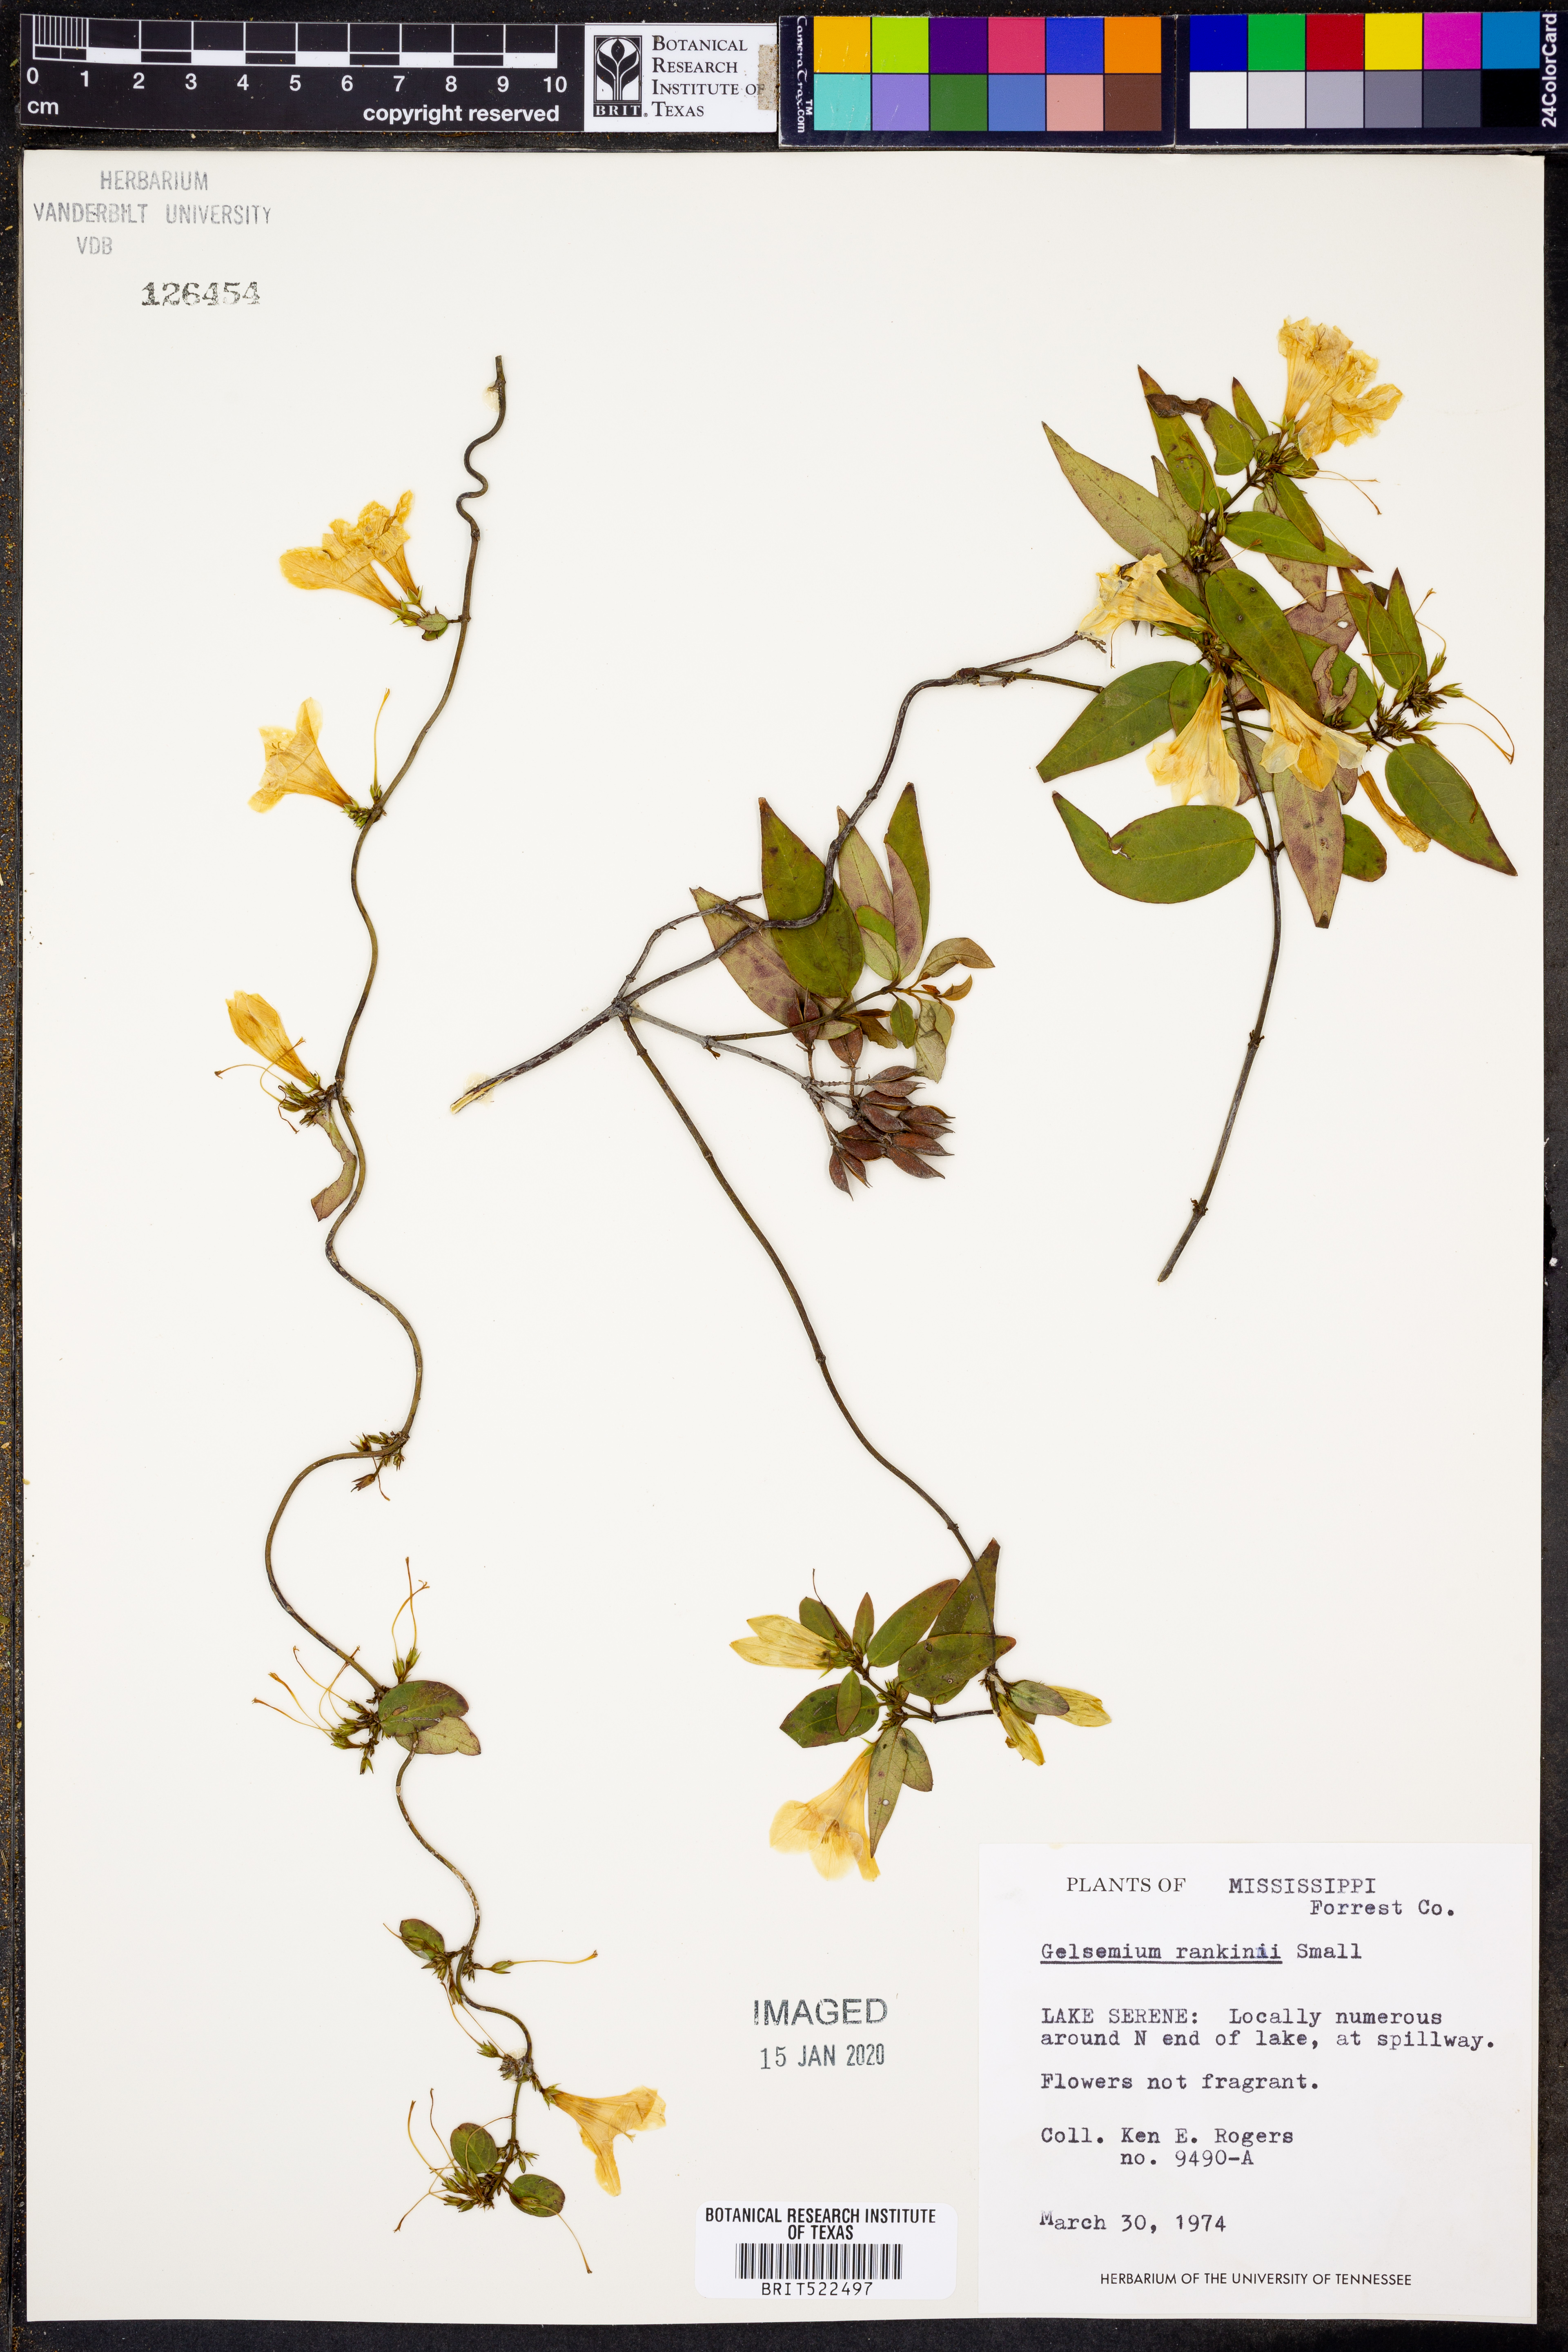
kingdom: Plantae
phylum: Tracheophyta
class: Magnoliopsida
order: Gentianales
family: Gelsemiaceae
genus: Gelsemium
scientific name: Gelsemium rankinii
